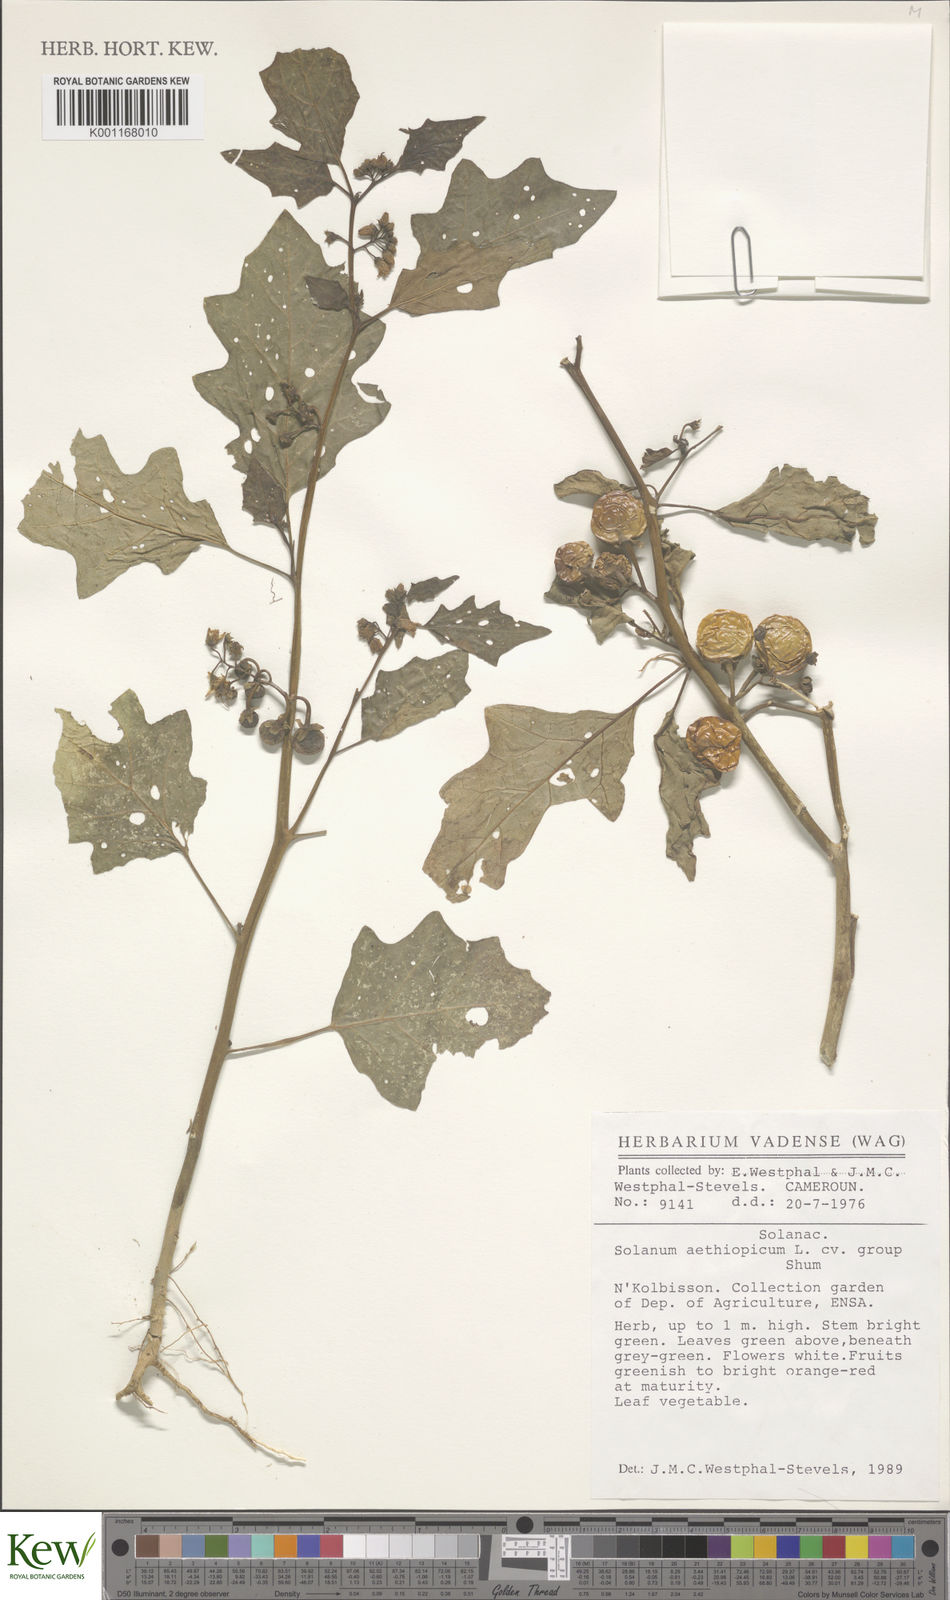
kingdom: Plantae
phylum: Tracheophyta
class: Magnoliopsida
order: Solanales
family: Solanaceae
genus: Solanum
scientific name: Solanum aethiopicum
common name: Gilo
